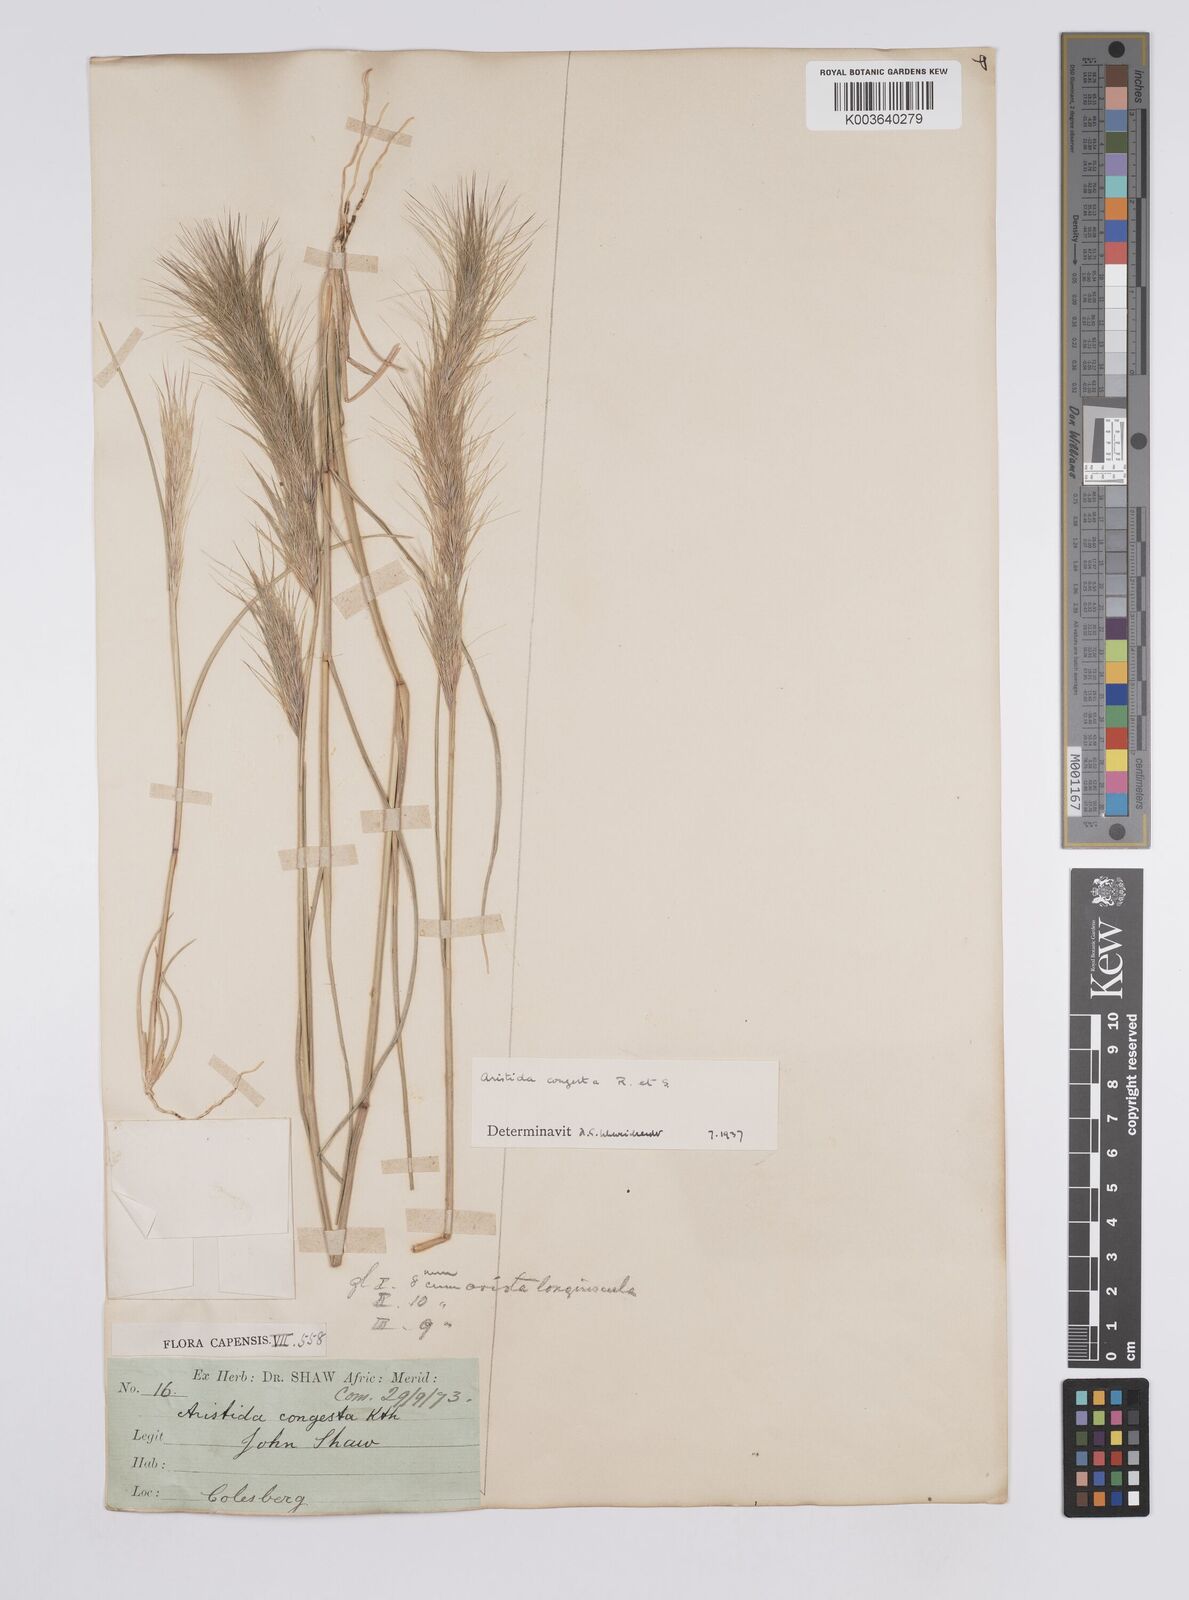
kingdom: Plantae
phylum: Tracheophyta
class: Liliopsida
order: Poales
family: Poaceae
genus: Aristida
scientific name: Aristida congesta
